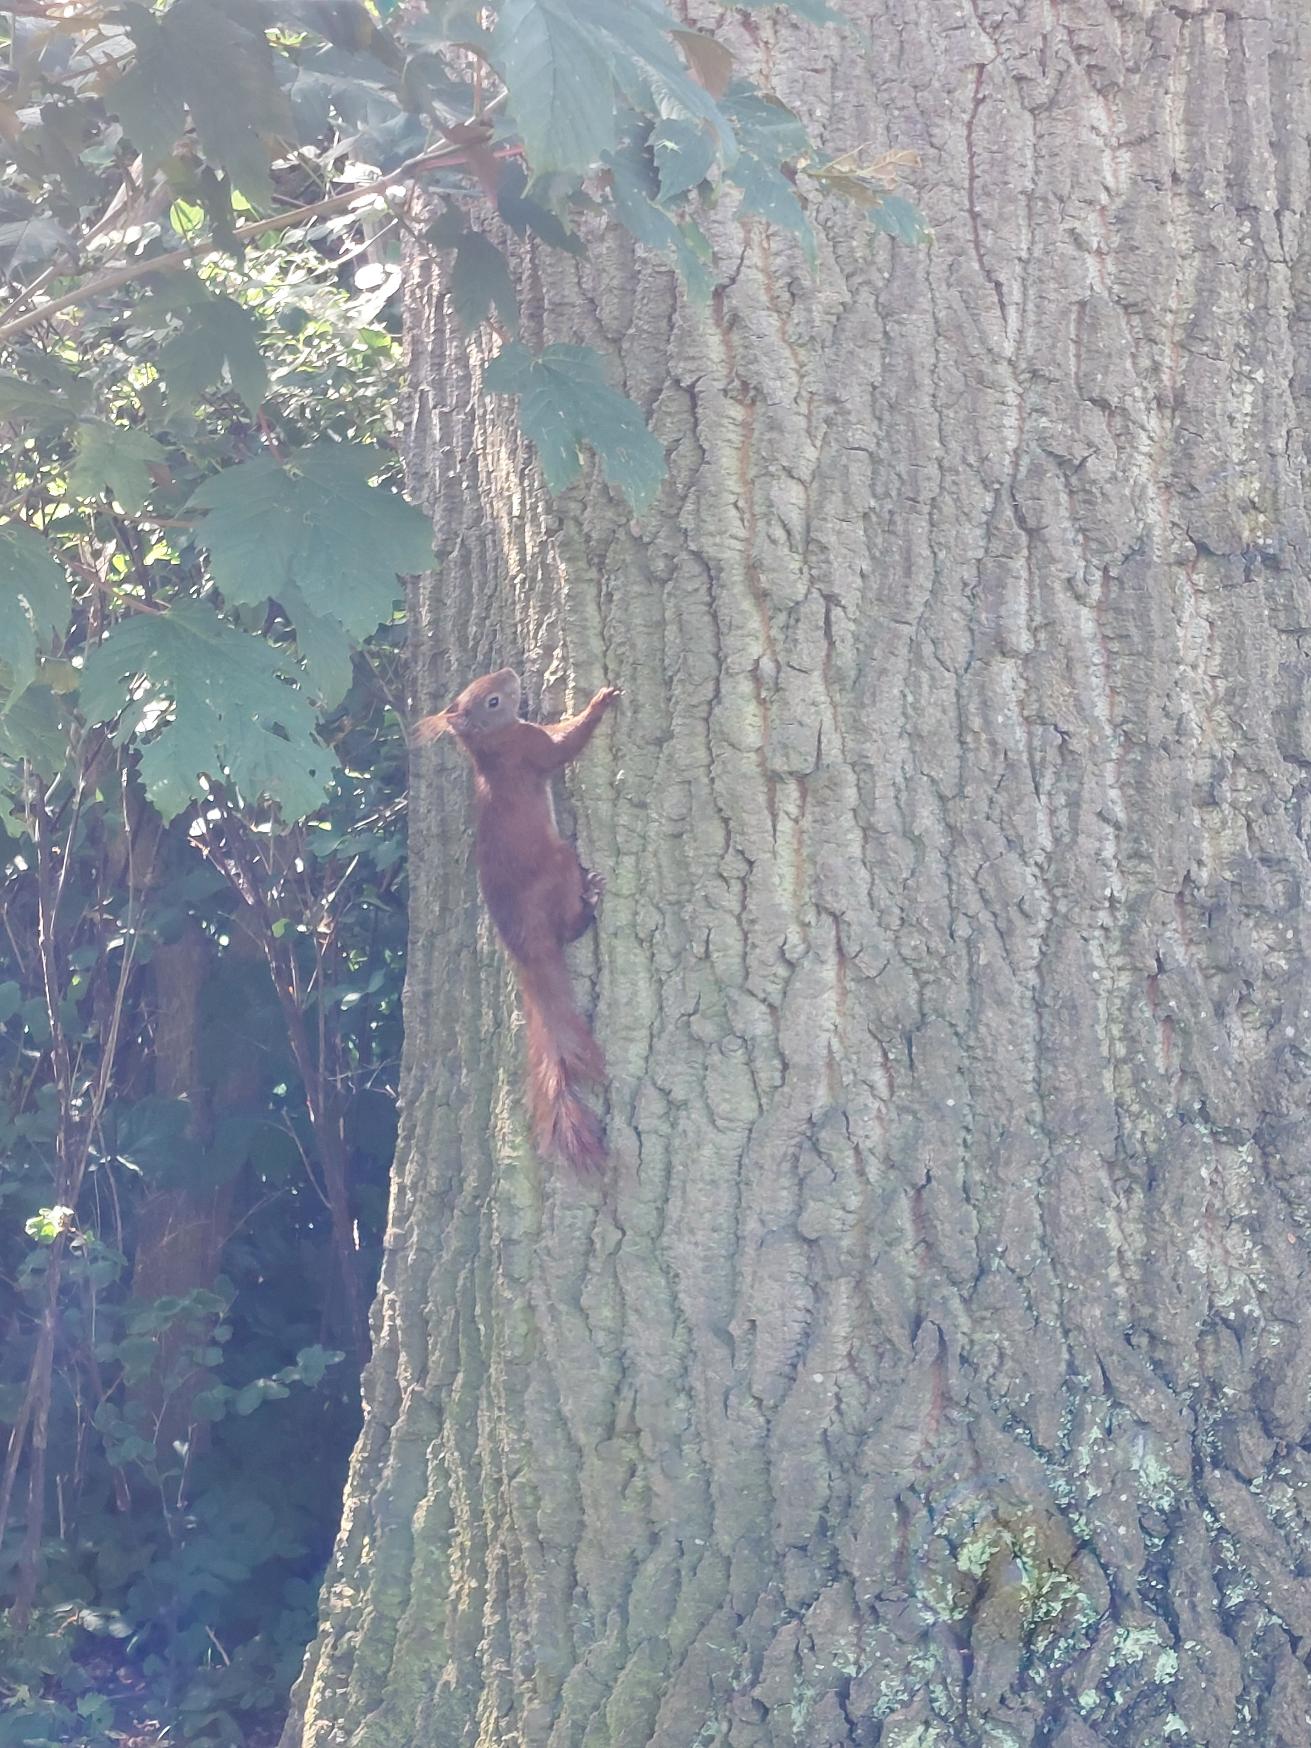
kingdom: Animalia
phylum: Chordata
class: Mammalia
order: Rodentia
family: Sciuridae
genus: Sciurus
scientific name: Sciurus vulgaris
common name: Egern
